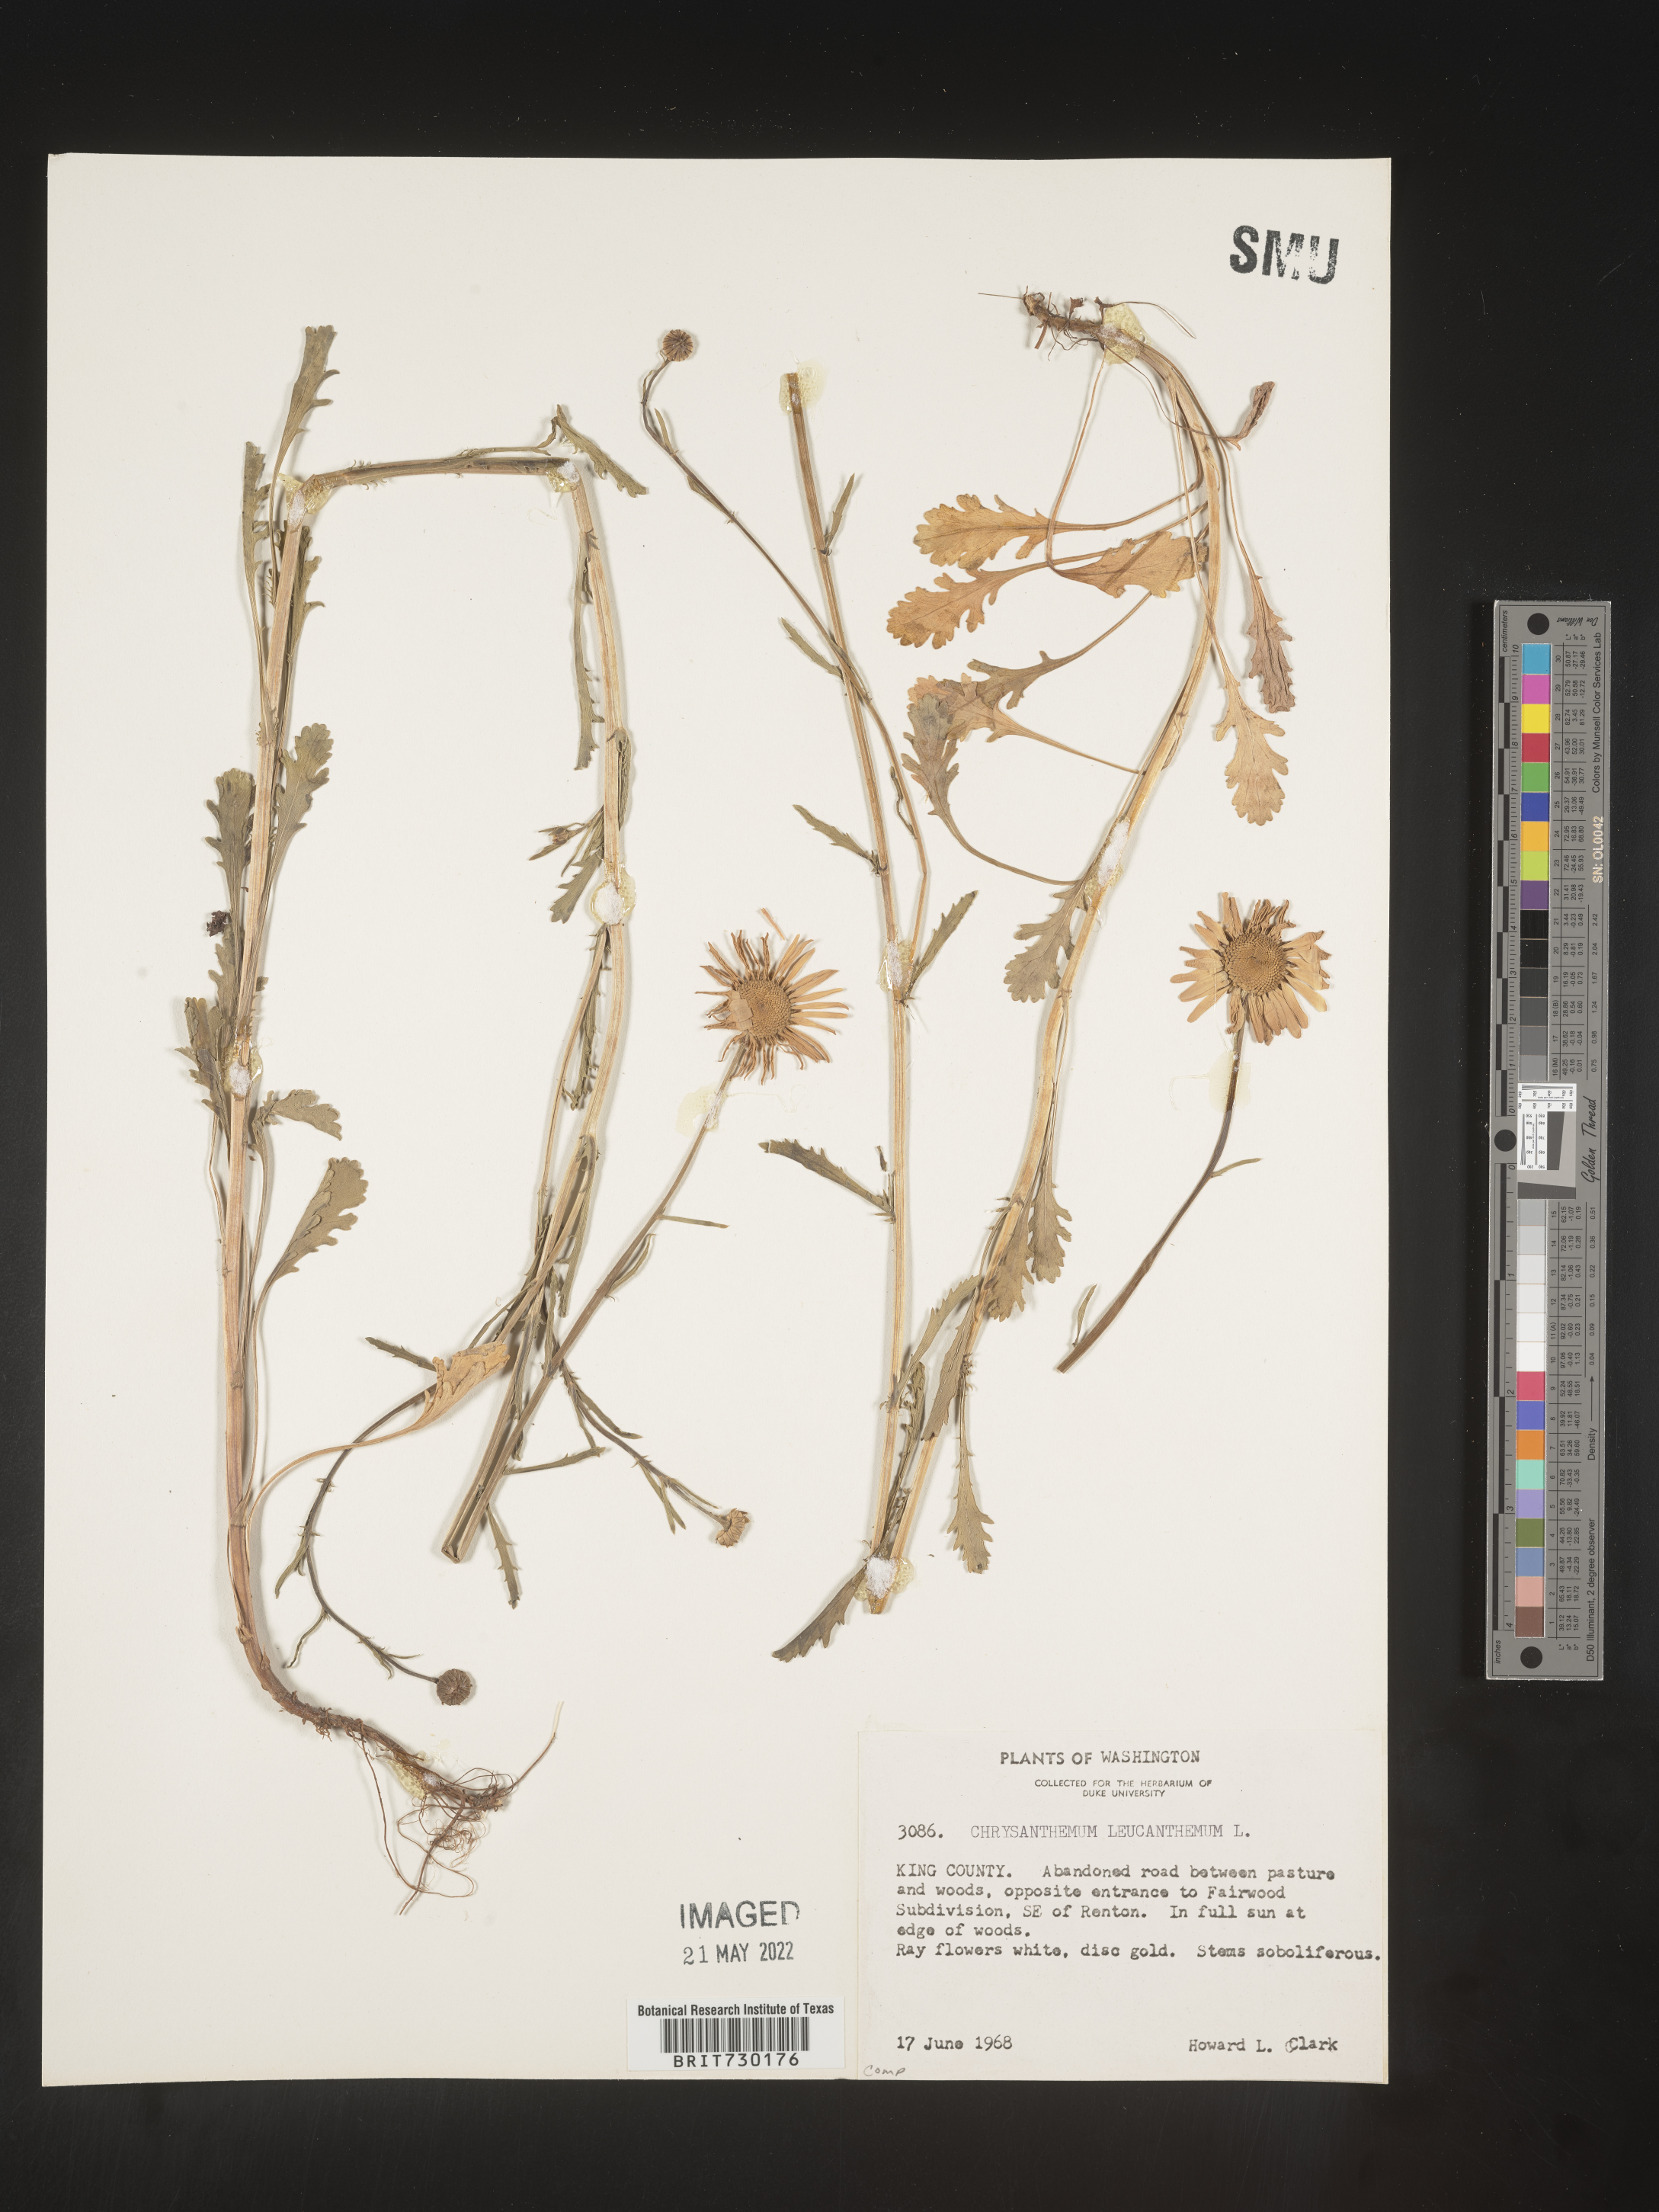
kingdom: Plantae
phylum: Tracheophyta
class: Magnoliopsida
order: Asterales
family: Asteraceae
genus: Leucanthemum
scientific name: Leucanthemum vulgare
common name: Oxeye daisy
